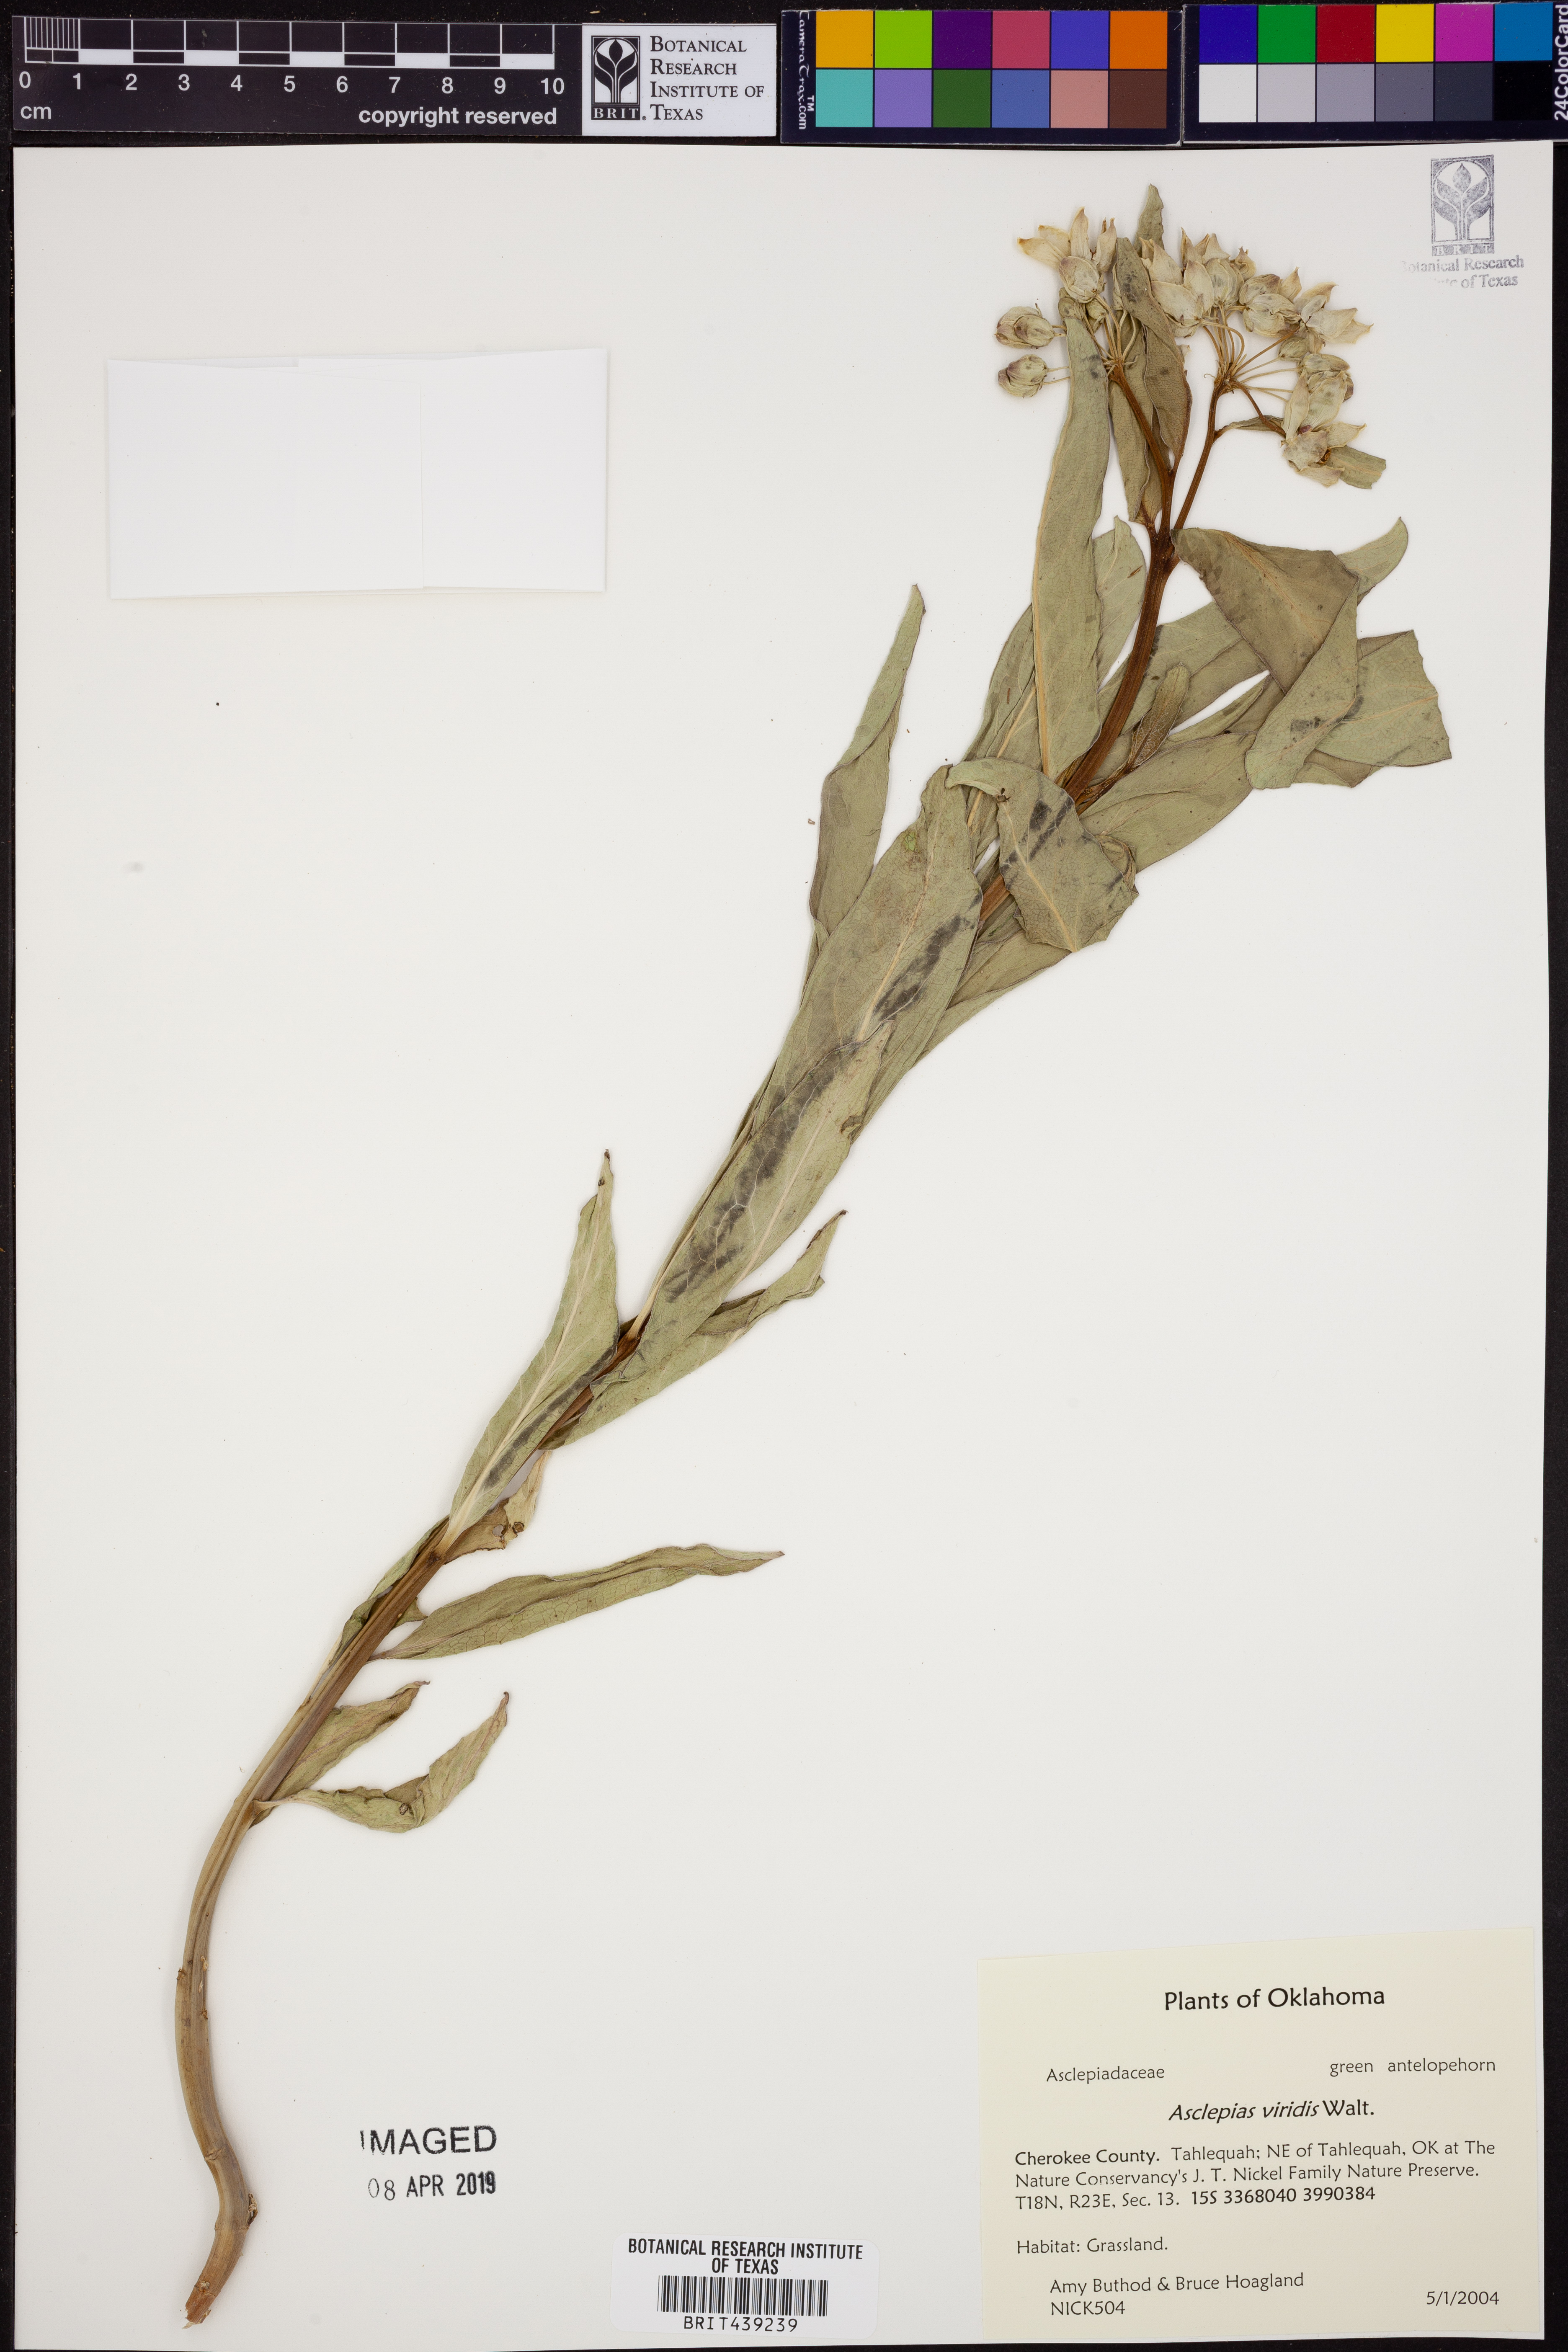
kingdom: Plantae
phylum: Tracheophyta
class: Magnoliopsida
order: Gentianales
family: Apocynaceae
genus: Asclepias
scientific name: Asclepias viridis
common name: Antelope-horns
